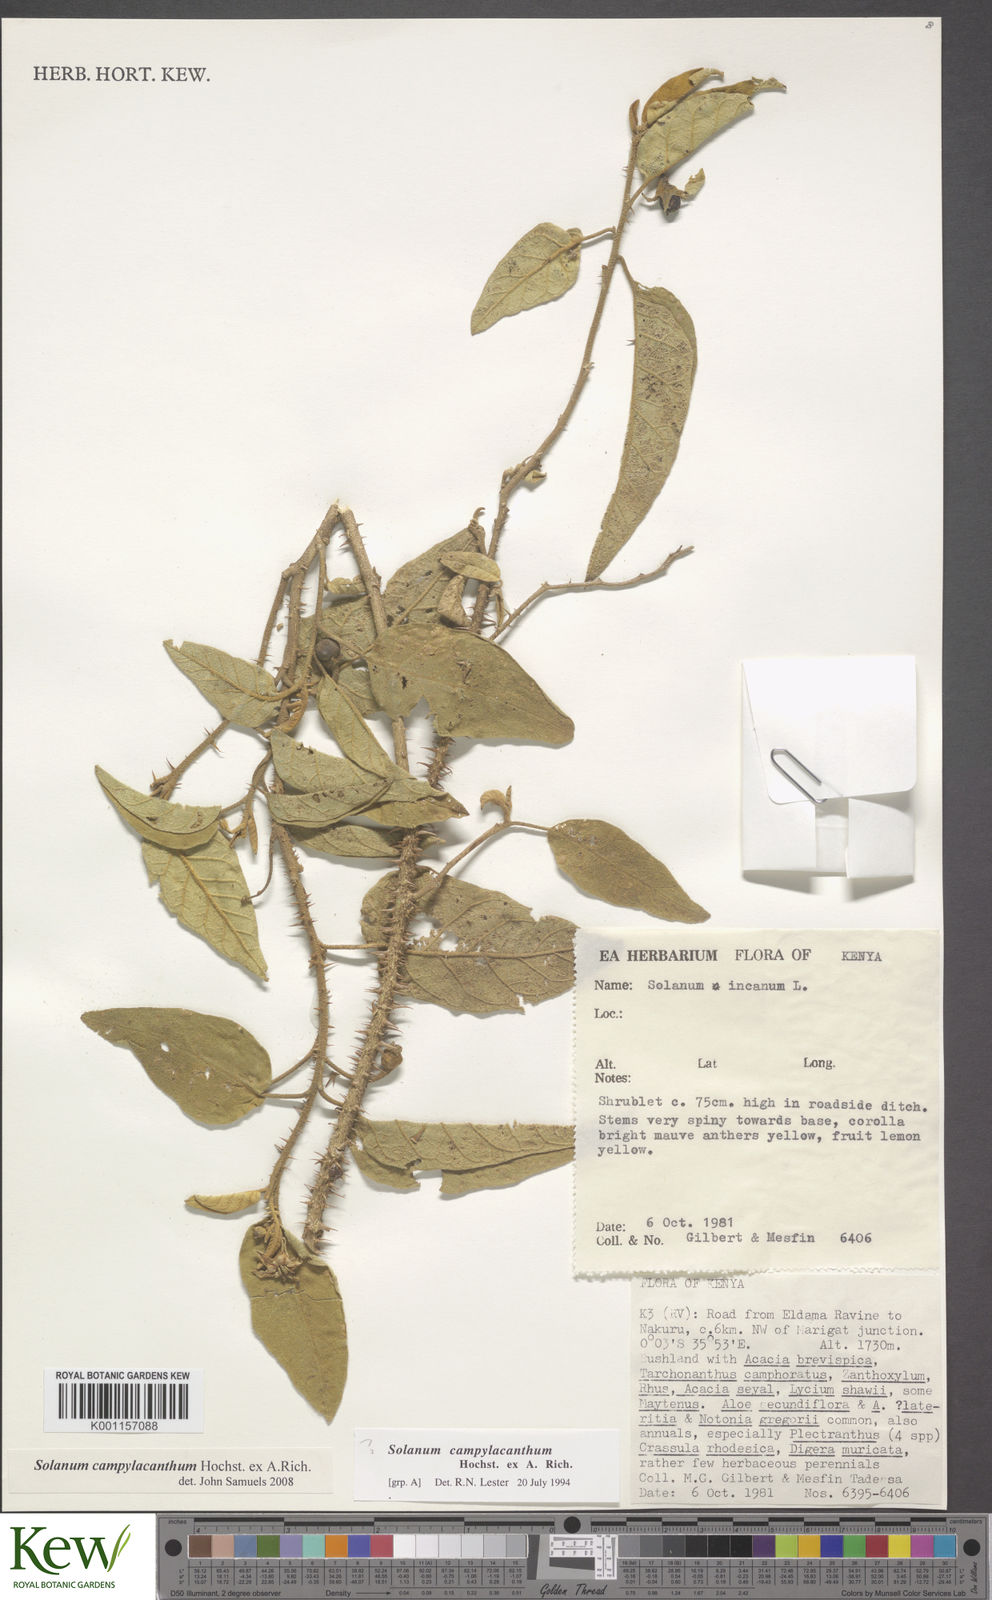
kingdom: Plantae
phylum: Tracheophyta
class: Magnoliopsida
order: Solanales
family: Solanaceae
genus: Solanum
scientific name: Solanum campylacanthum
